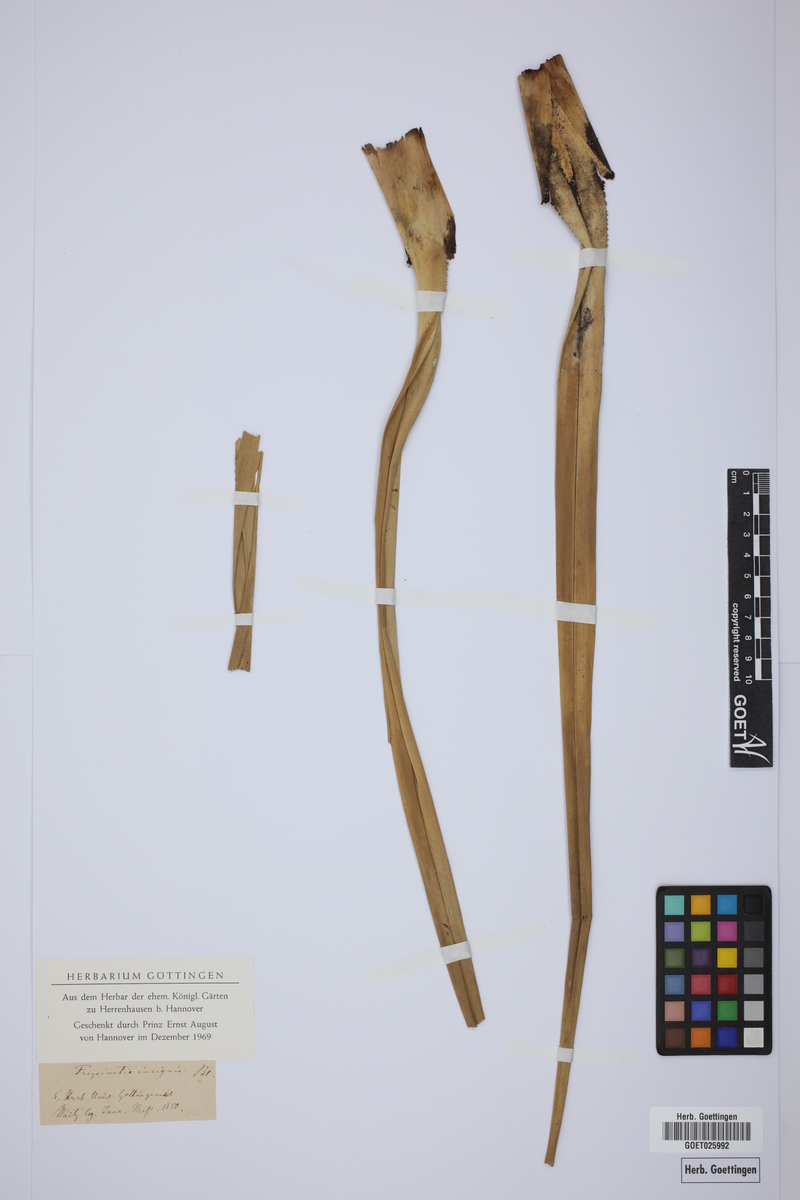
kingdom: Plantae
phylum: Tracheophyta
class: Liliopsida
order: Pandanales
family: Pandanaceae
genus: Freycinetia
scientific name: Freycinetia insignis
